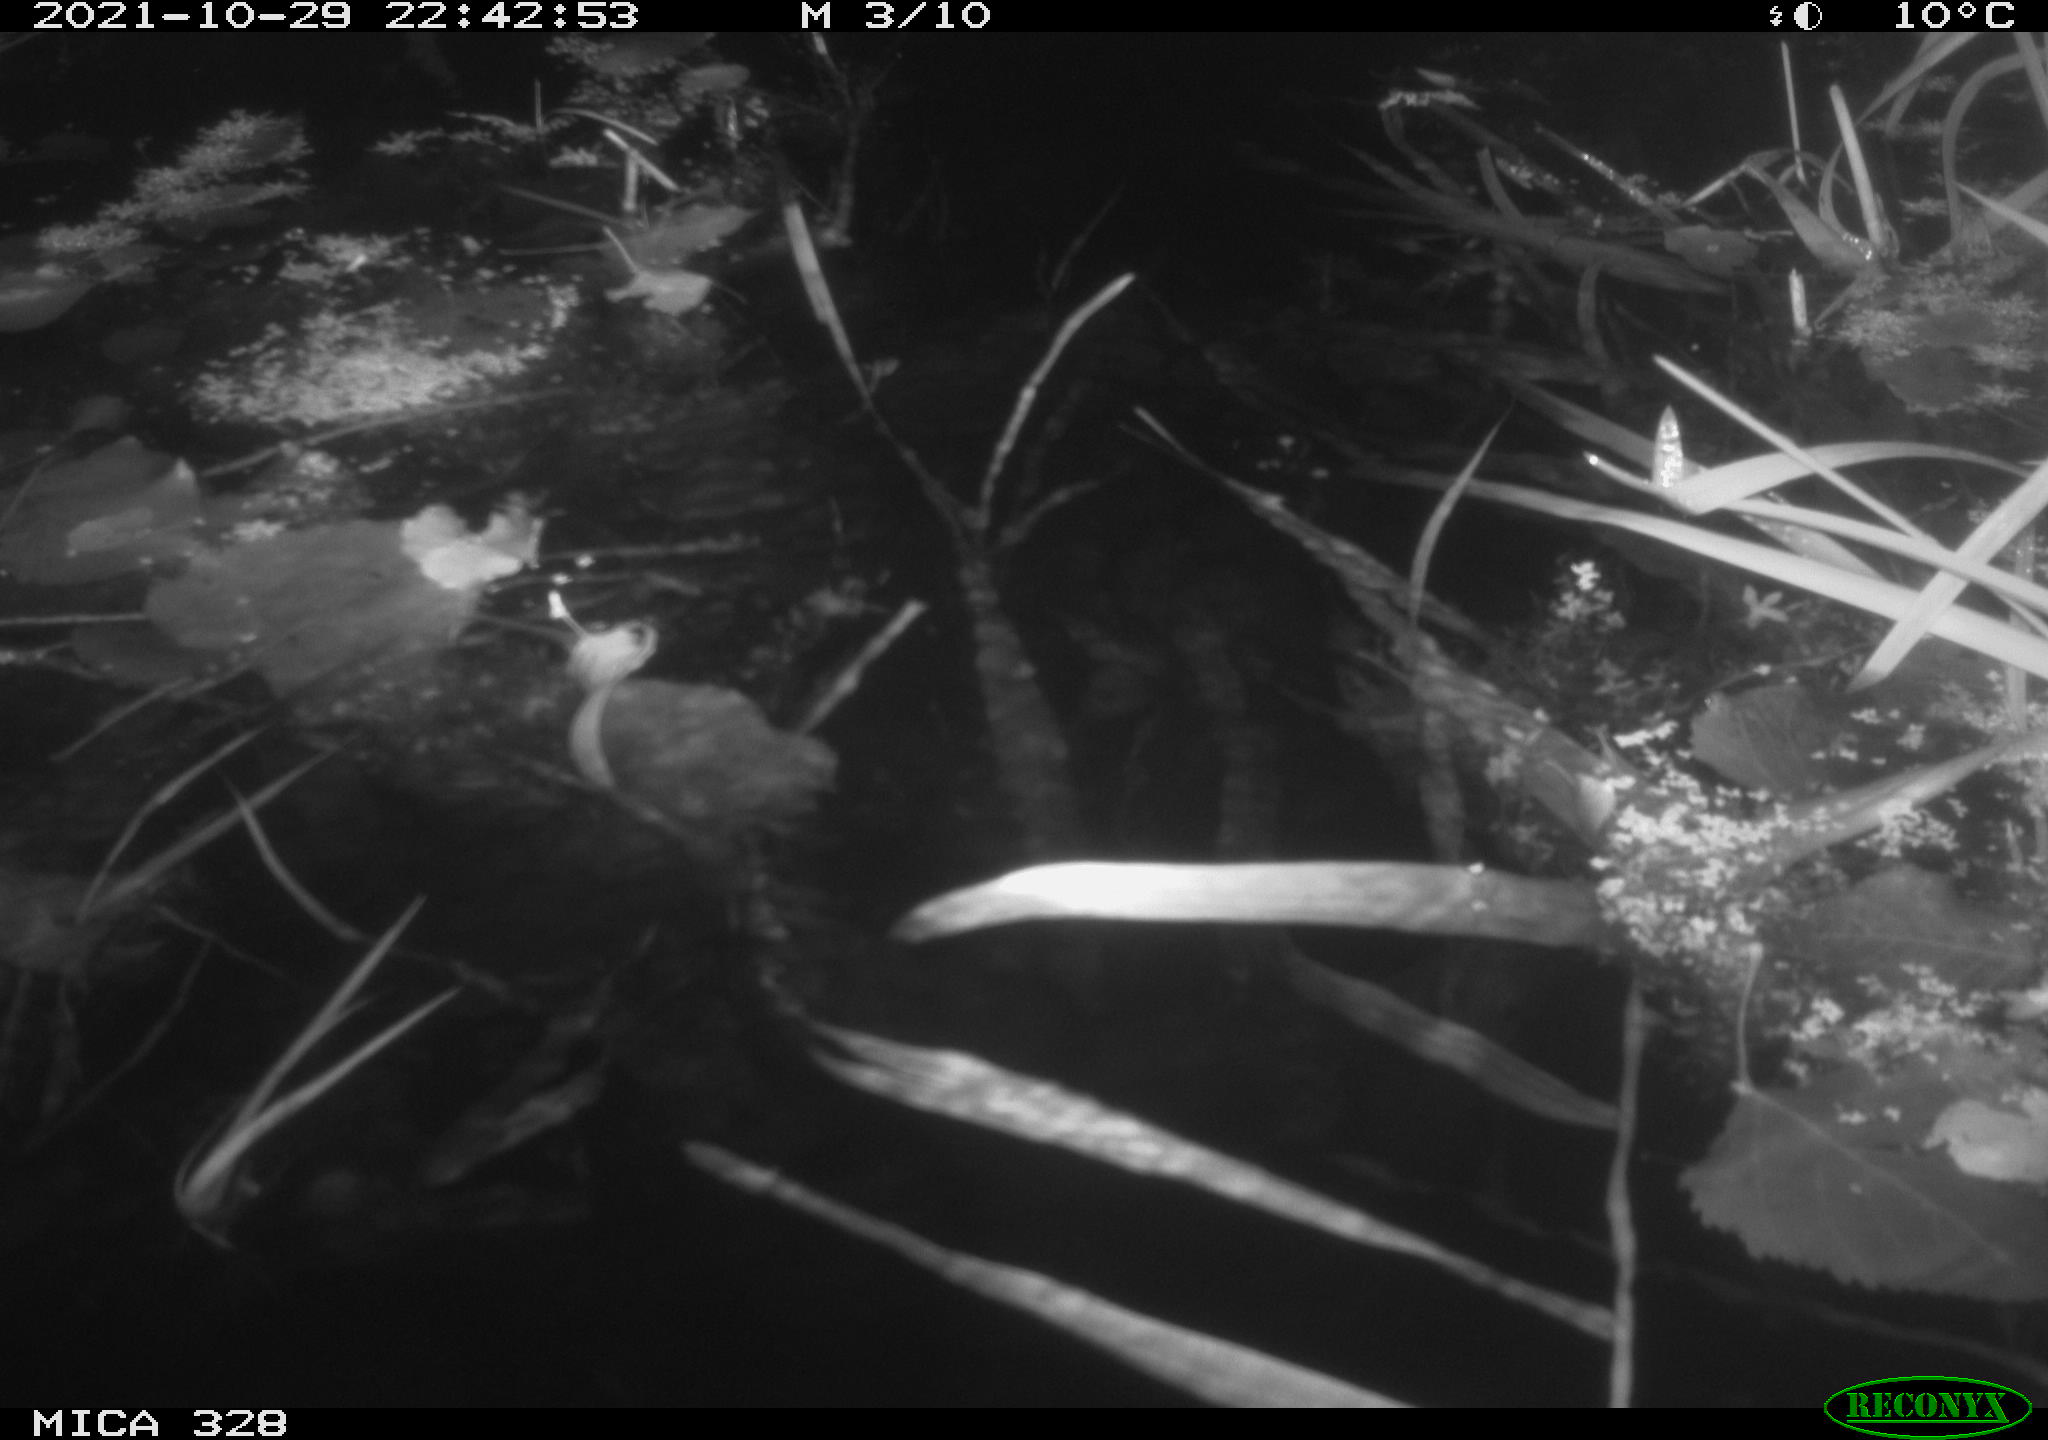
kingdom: Animalia
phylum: Chordata
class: Mammalia
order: Rodentia
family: Cricetidae
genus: Ondatra
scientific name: Ondatra zibethicus
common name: Muskrat
